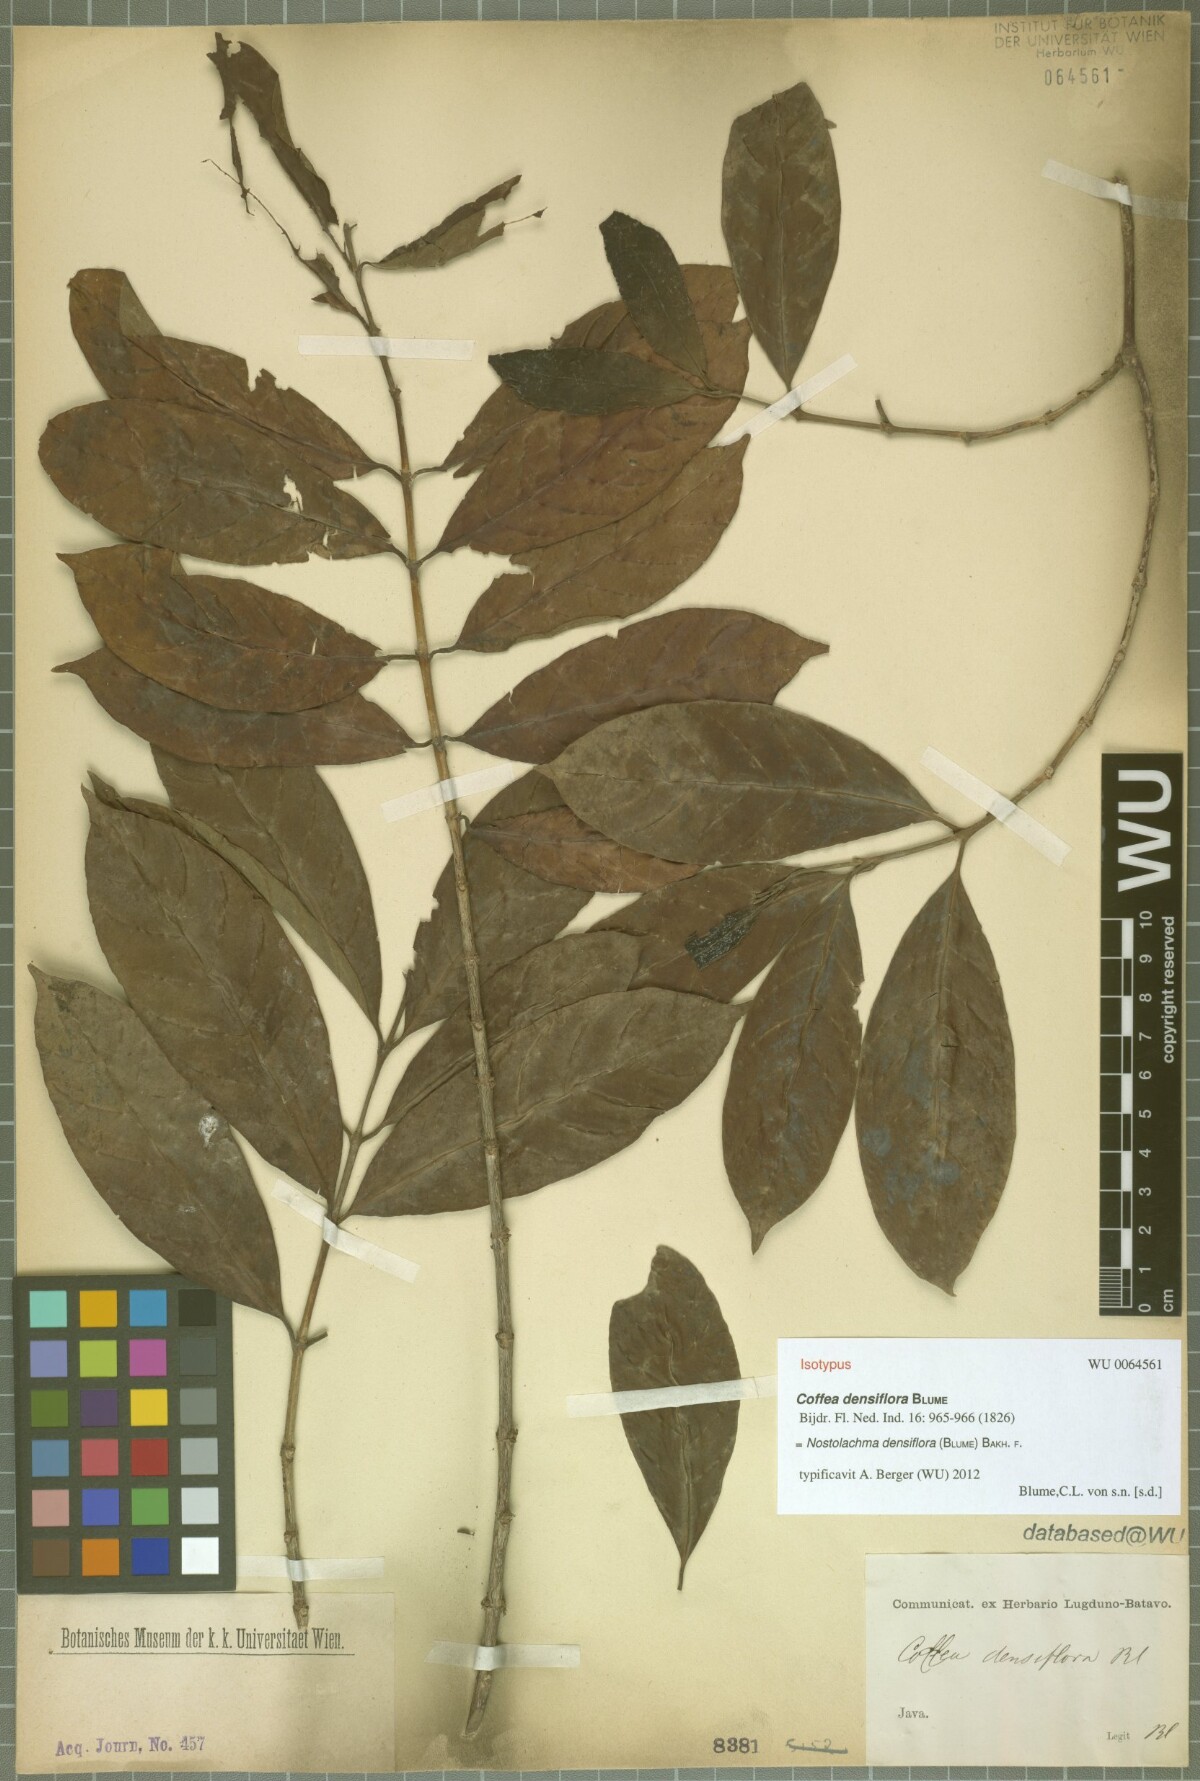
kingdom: Plantae
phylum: Tracheophyta
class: Magnoliopsida
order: Gentianales
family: Rubiaceae
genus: Nostolachma
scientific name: Nostolachma densiflora
